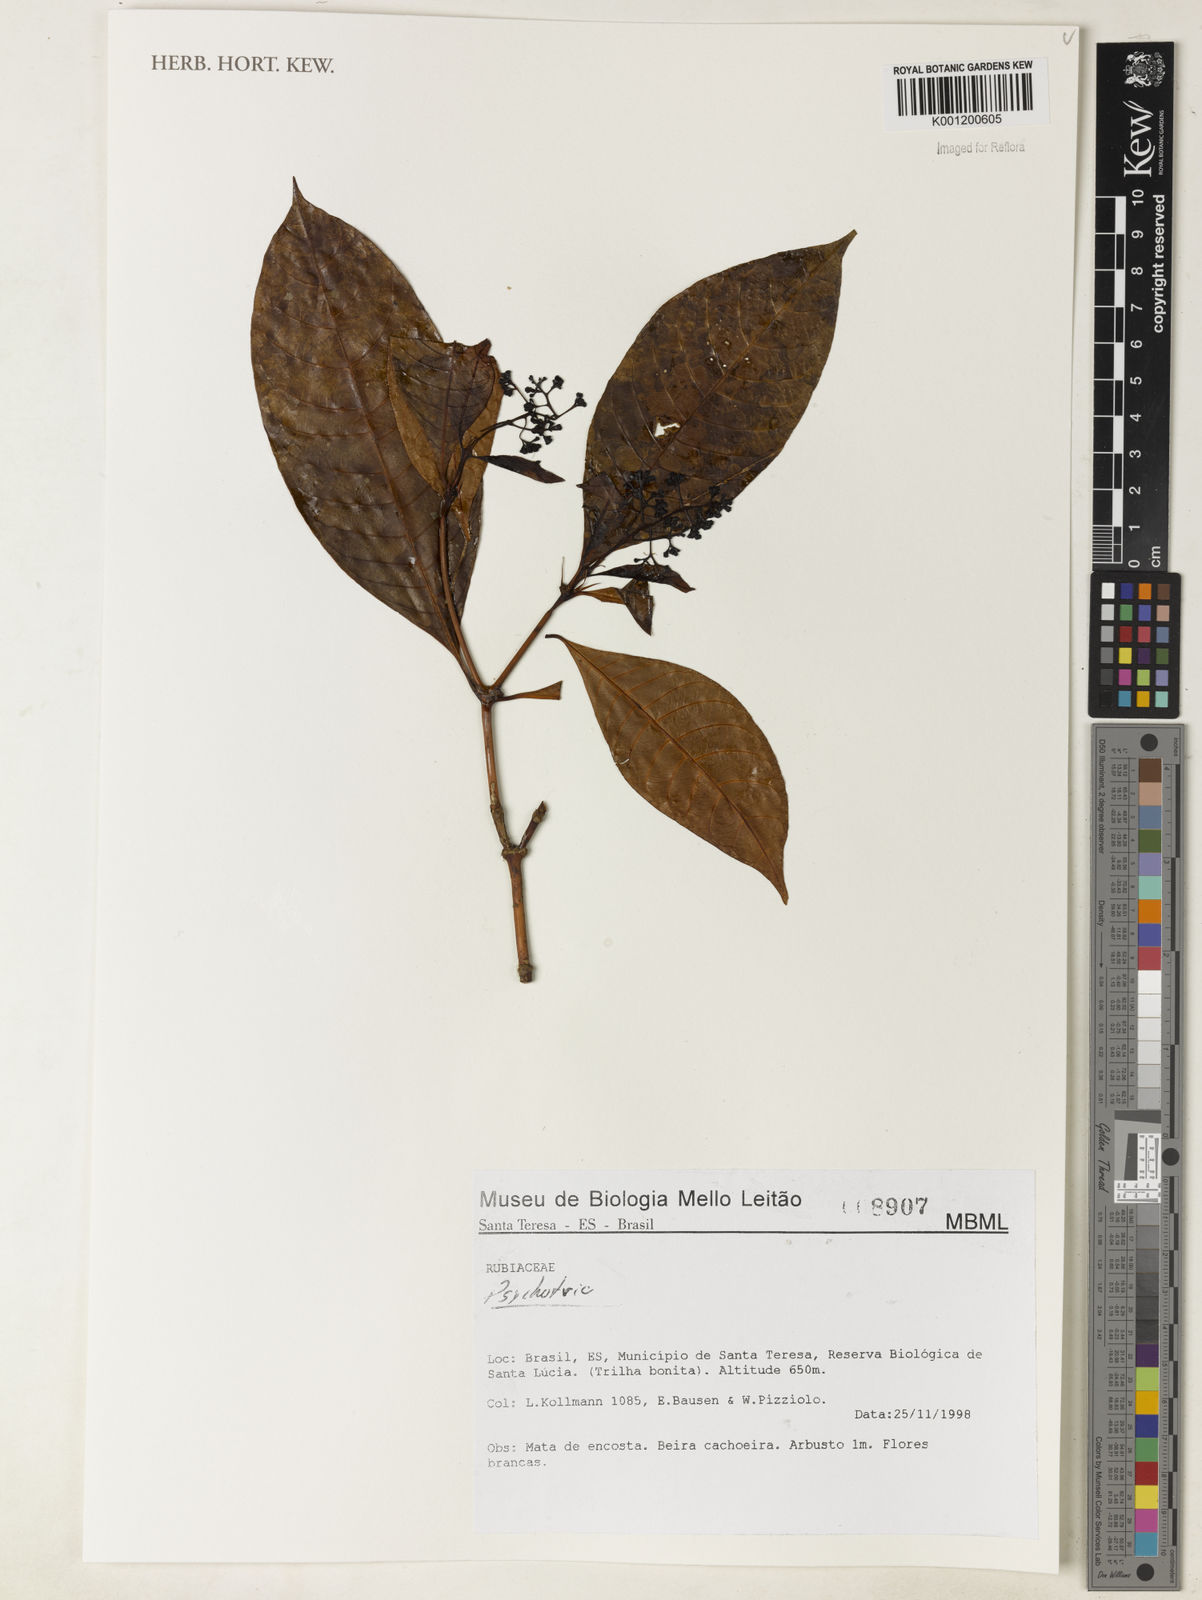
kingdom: Plantae
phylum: Tracheophyta
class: Magnoliopsida
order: Gentianales
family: Rubiaceae
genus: Psychotria
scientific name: Psychotria
